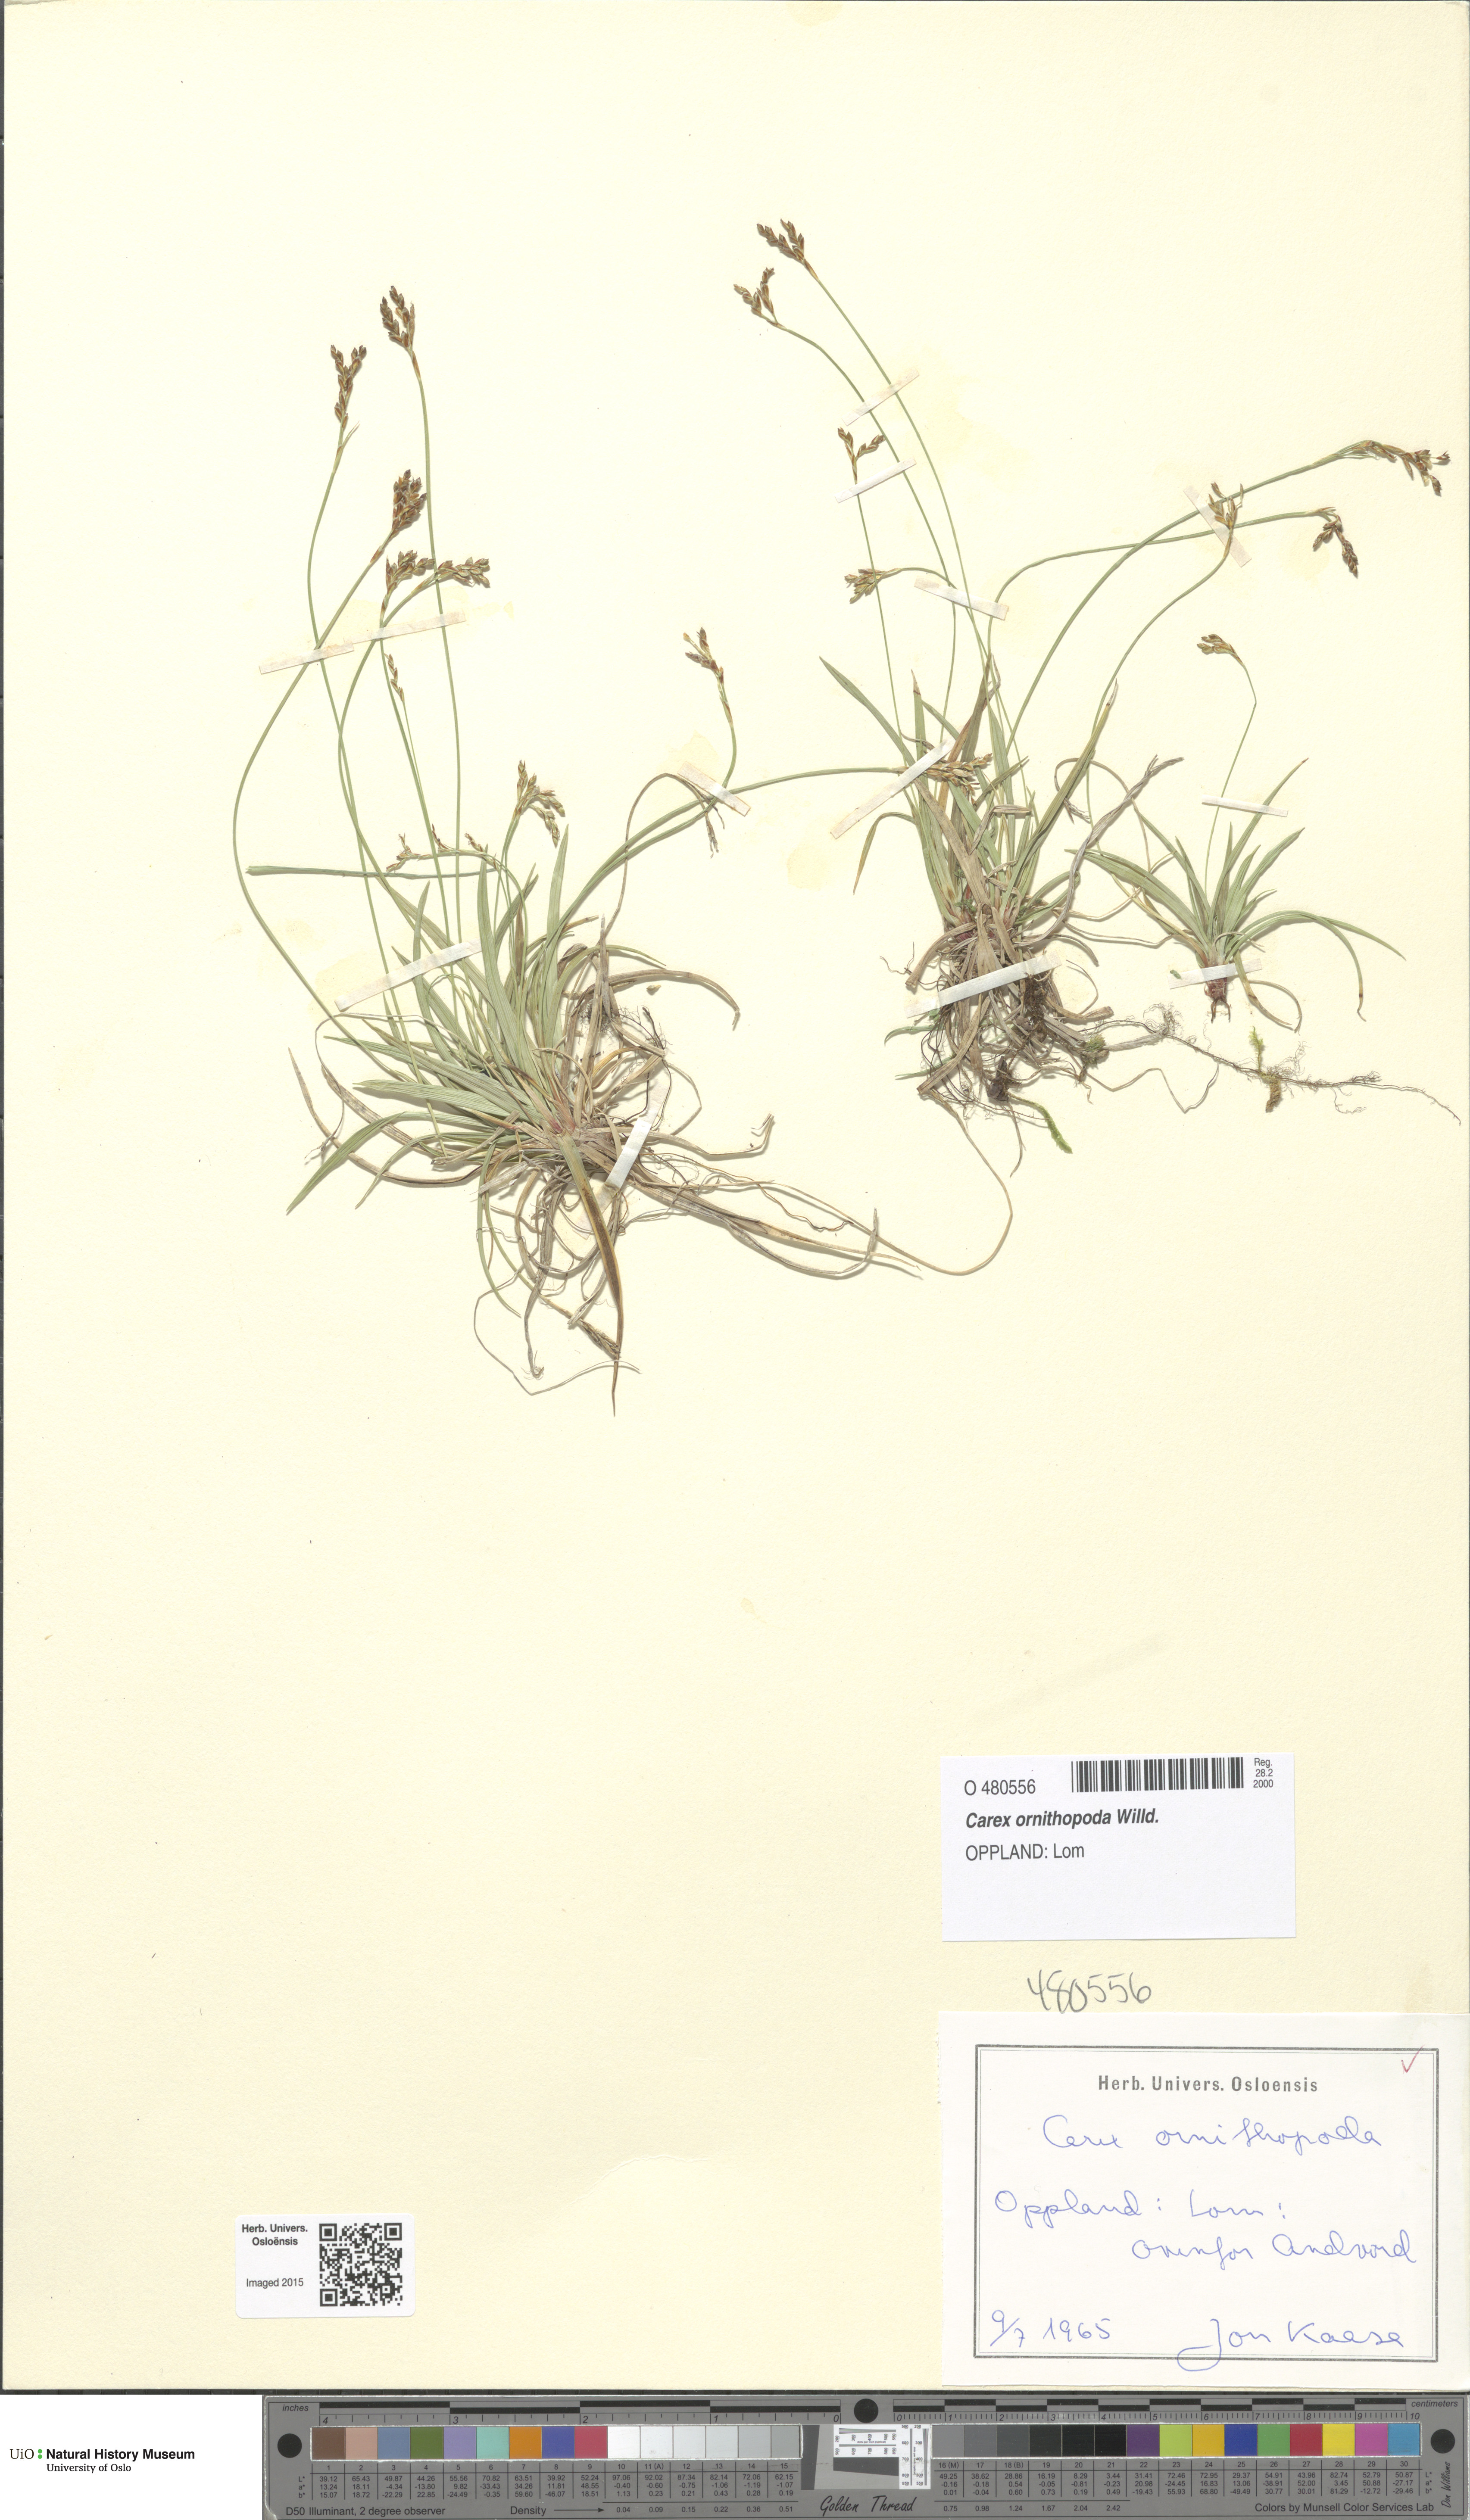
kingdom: Plantae
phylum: Tracheophyta
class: Liliopsida
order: Poales
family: Cyperaceae
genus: Carex
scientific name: Carex ornithopoda
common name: Bird's-foot sedge
